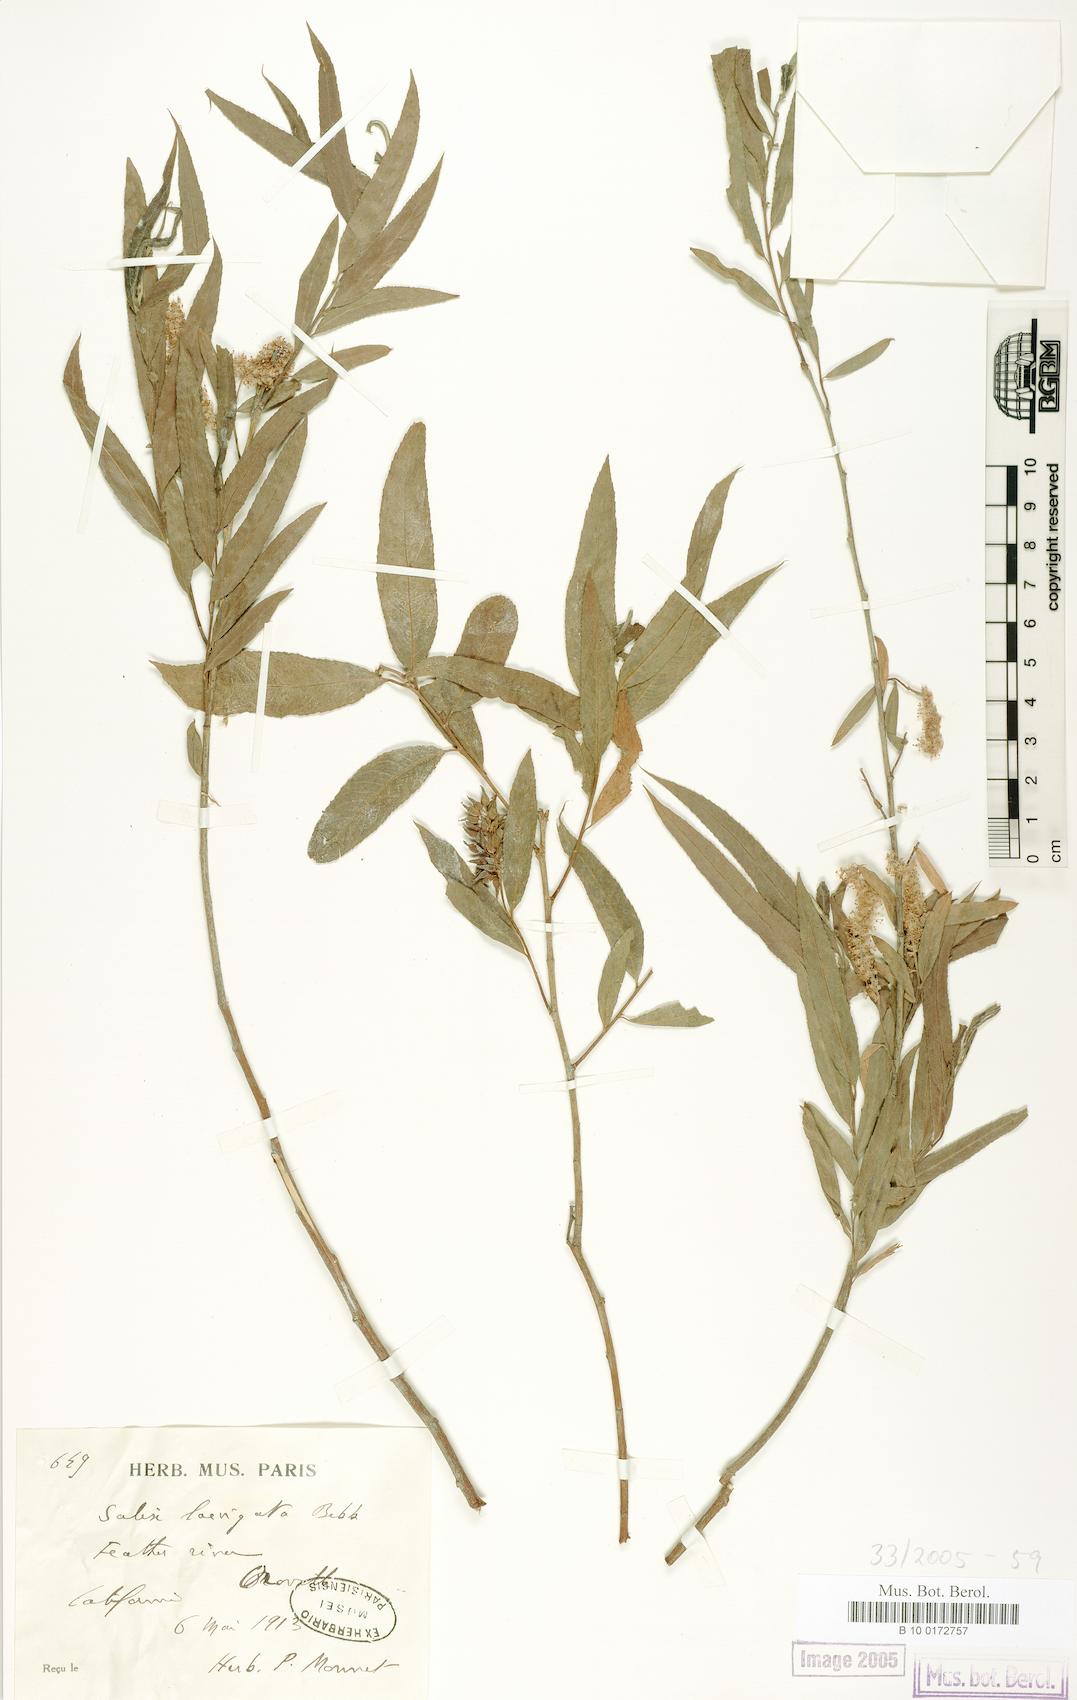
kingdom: Plantae
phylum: Tracheophyta
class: Magnoliopsida
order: Malpighiales
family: Salicaceae
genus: Salix
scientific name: Salix laevigata
